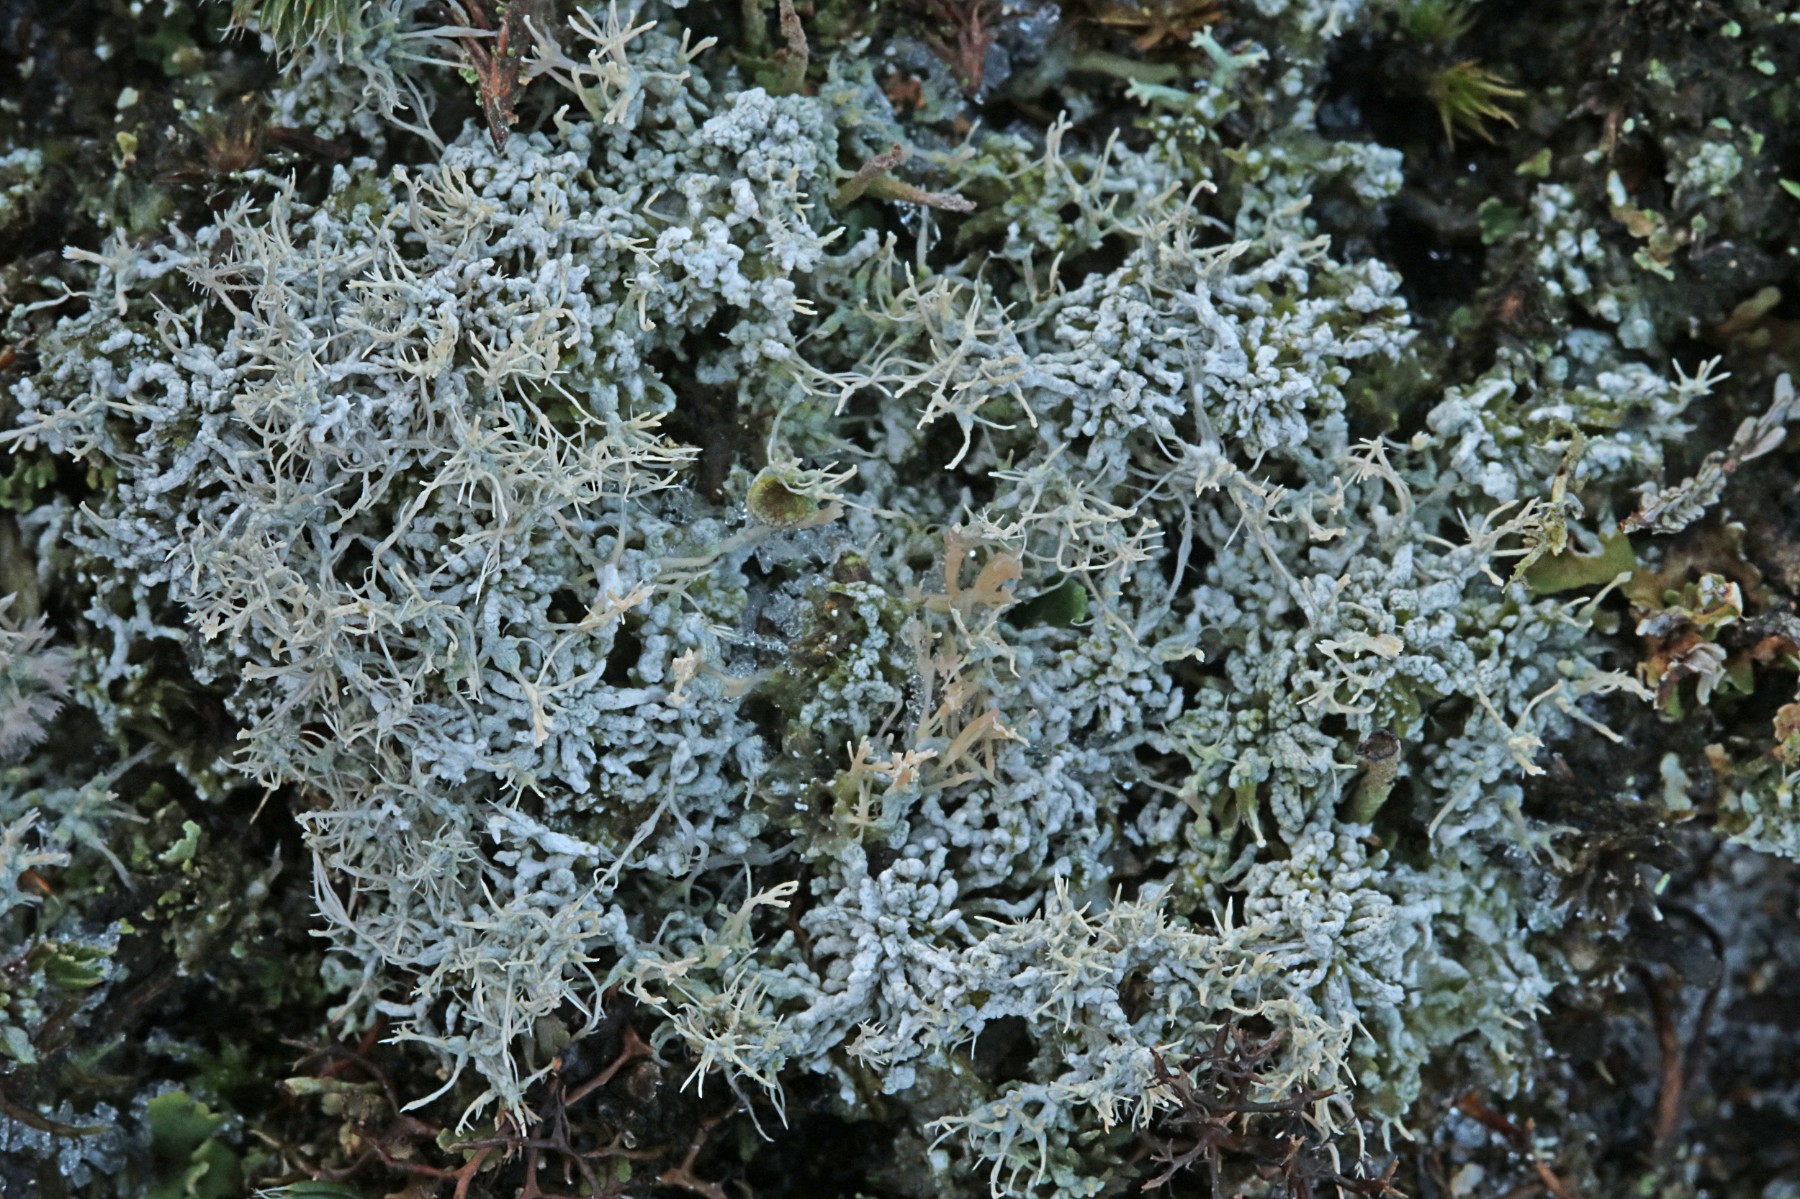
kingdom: Fungi
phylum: Ascomycota
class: Lecanoromycetes
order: Pertusariales
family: Ochrolechiaceae
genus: Ochrolechia
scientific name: Ochrolechia frigida
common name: fjeld-blegskivelav
